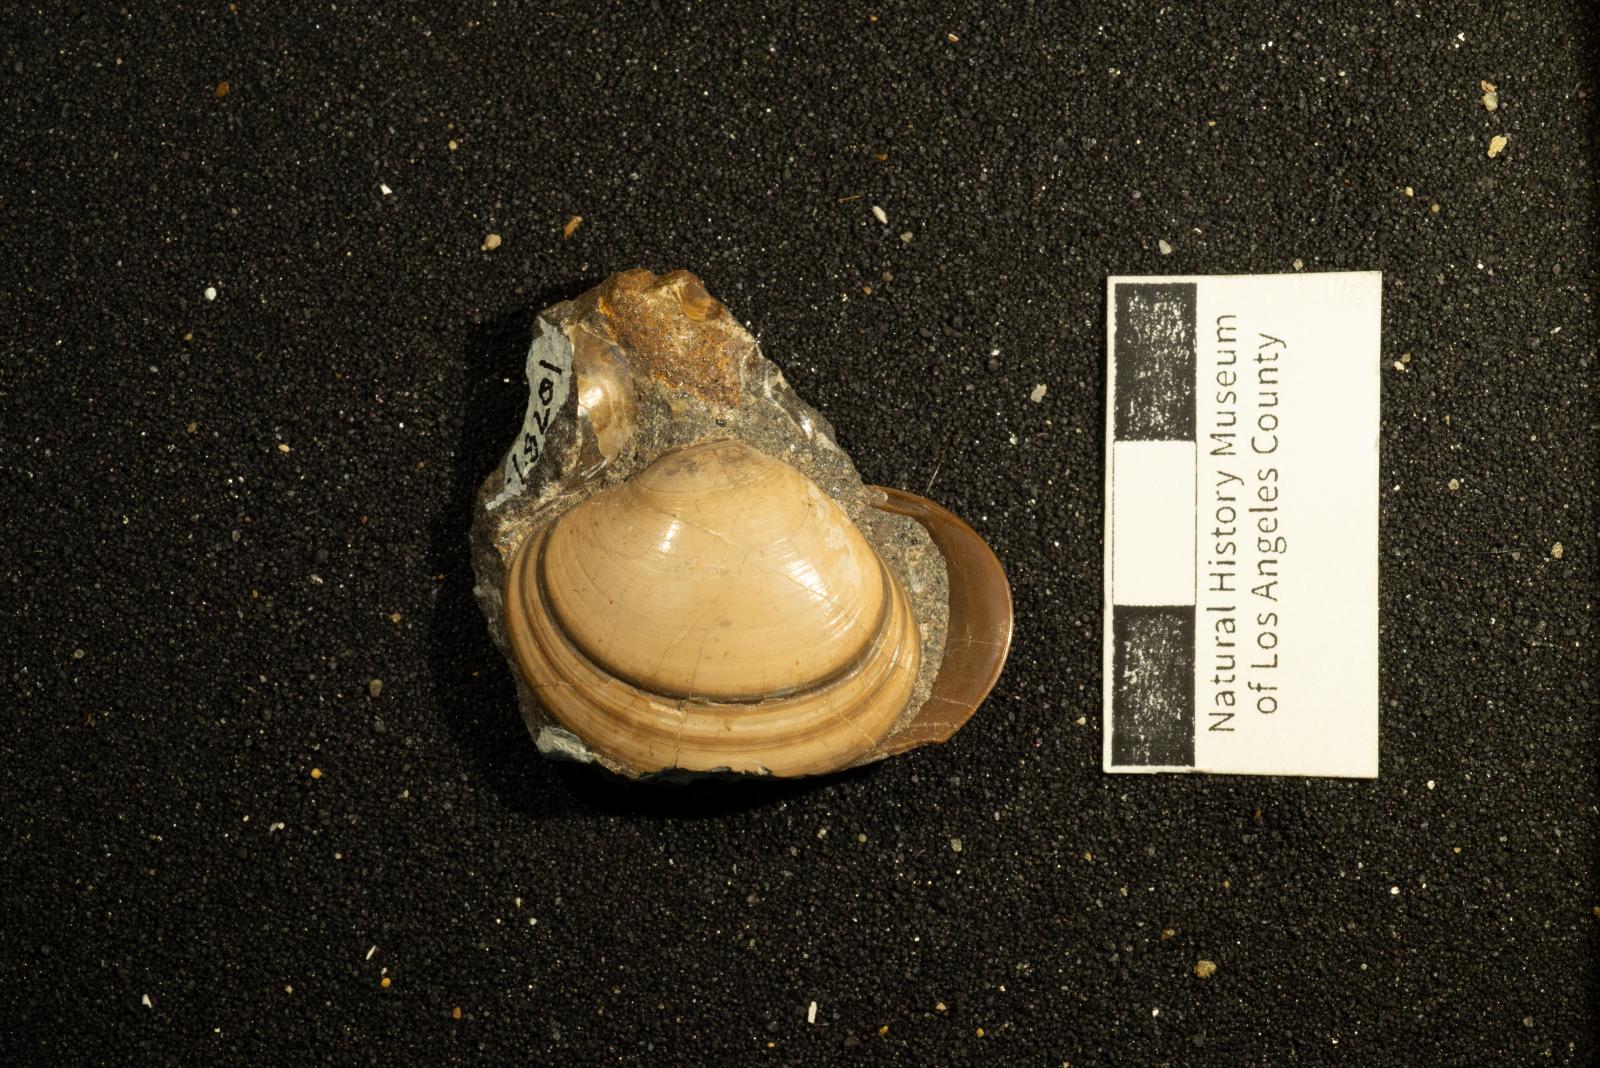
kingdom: Animalia
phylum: Mollusca
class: Bivalvia
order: Venerida
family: Veneridae
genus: Calva
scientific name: Calva Trigonocallista taffi
